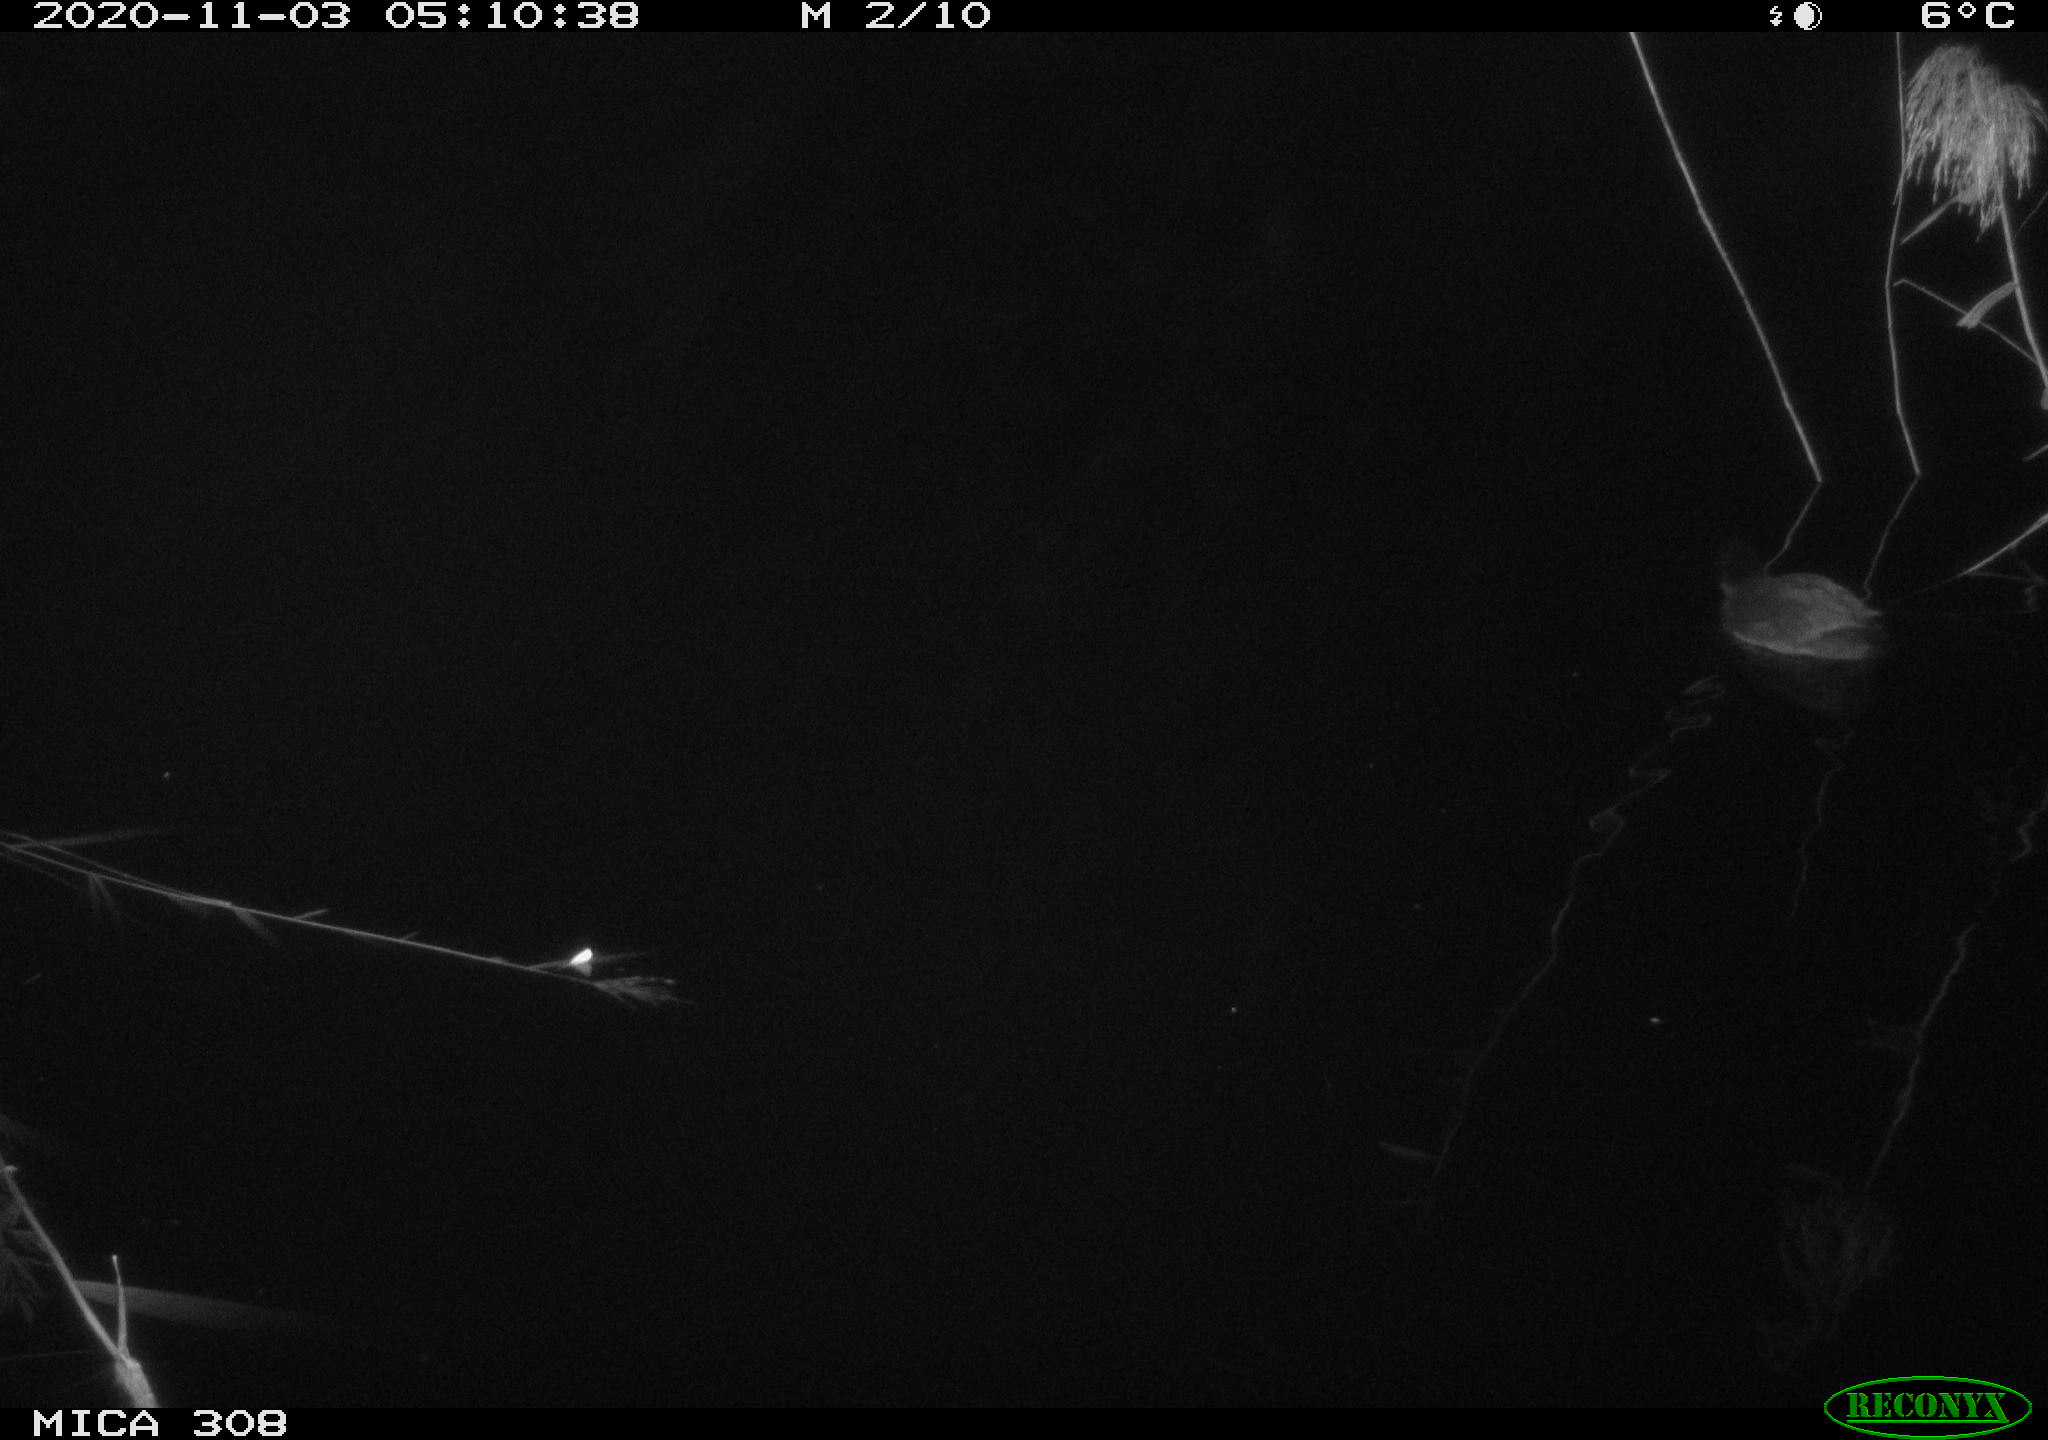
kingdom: Animalia
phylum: Chordata
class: Aves
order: Gruiformes
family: Rallidae
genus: Fulica
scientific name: Fulica atra
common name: Eurasian coot
